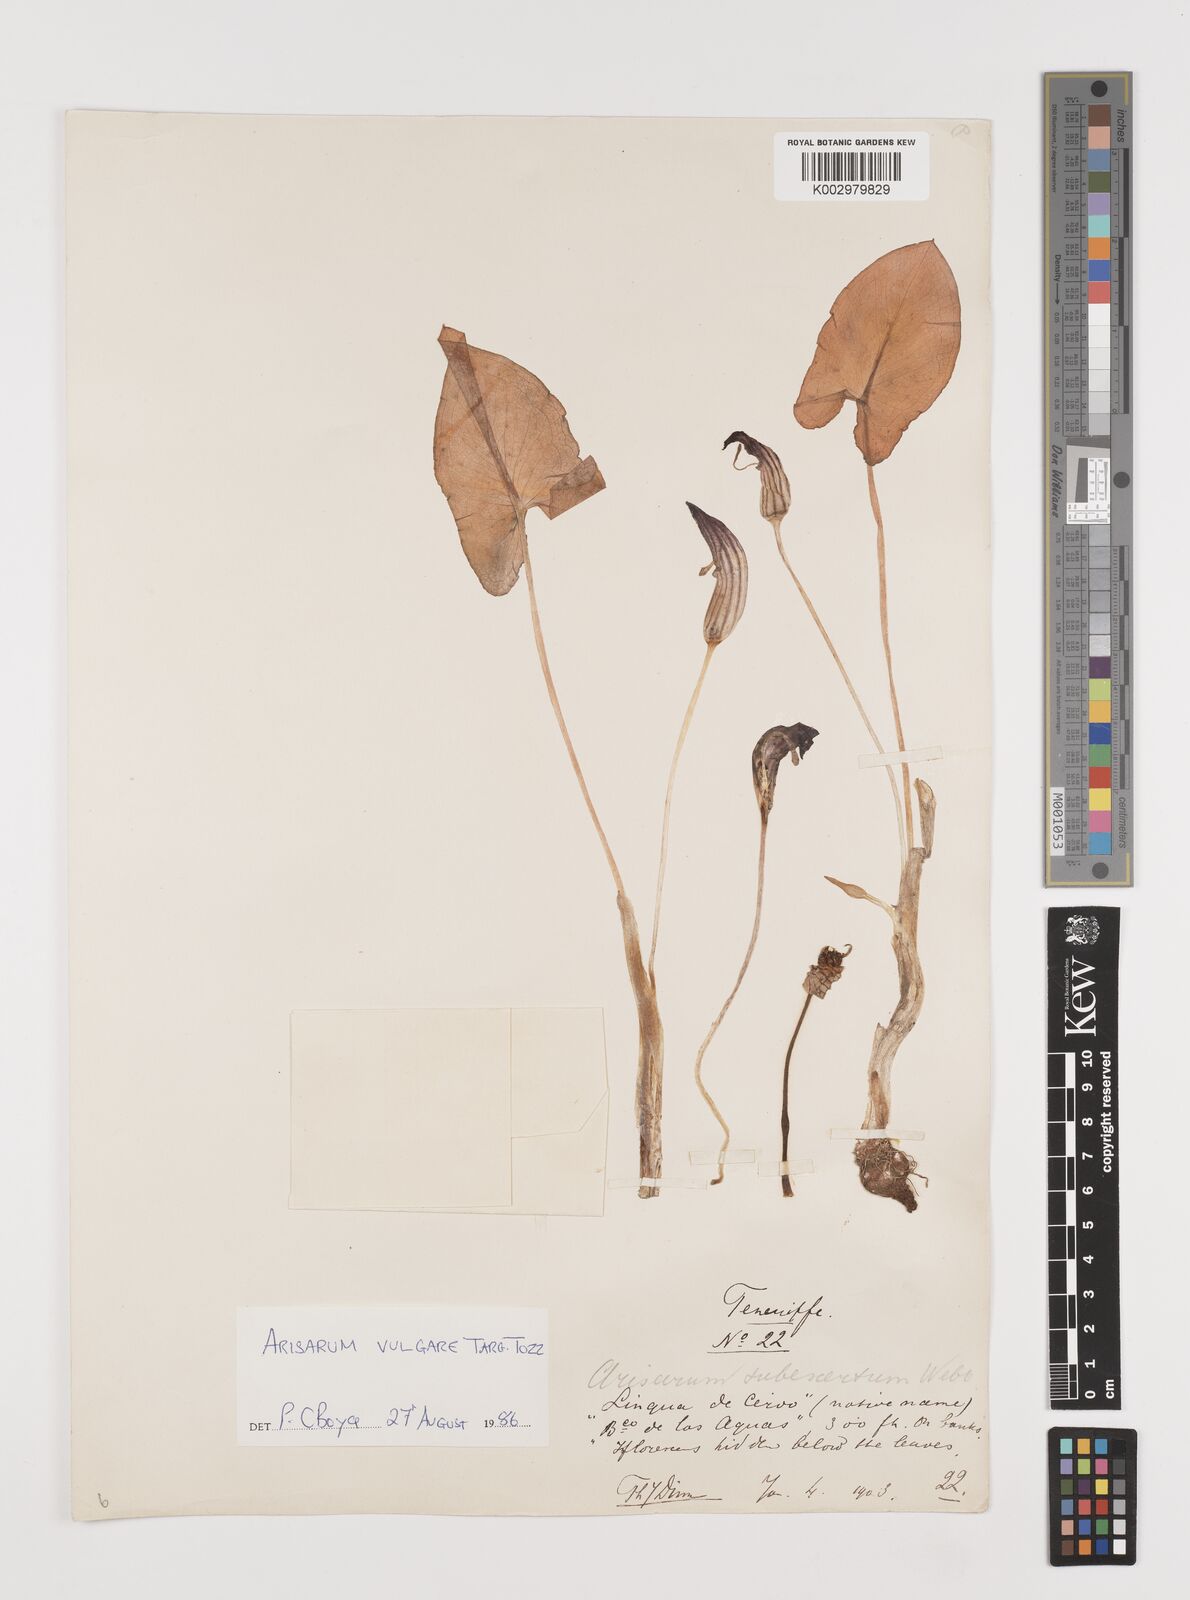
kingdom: Plantae
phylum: Tracheophyta
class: Liliopsida
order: Alismatales
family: Araceae
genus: Arisarum
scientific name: Arisarum vulgare
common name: Common arisarum
